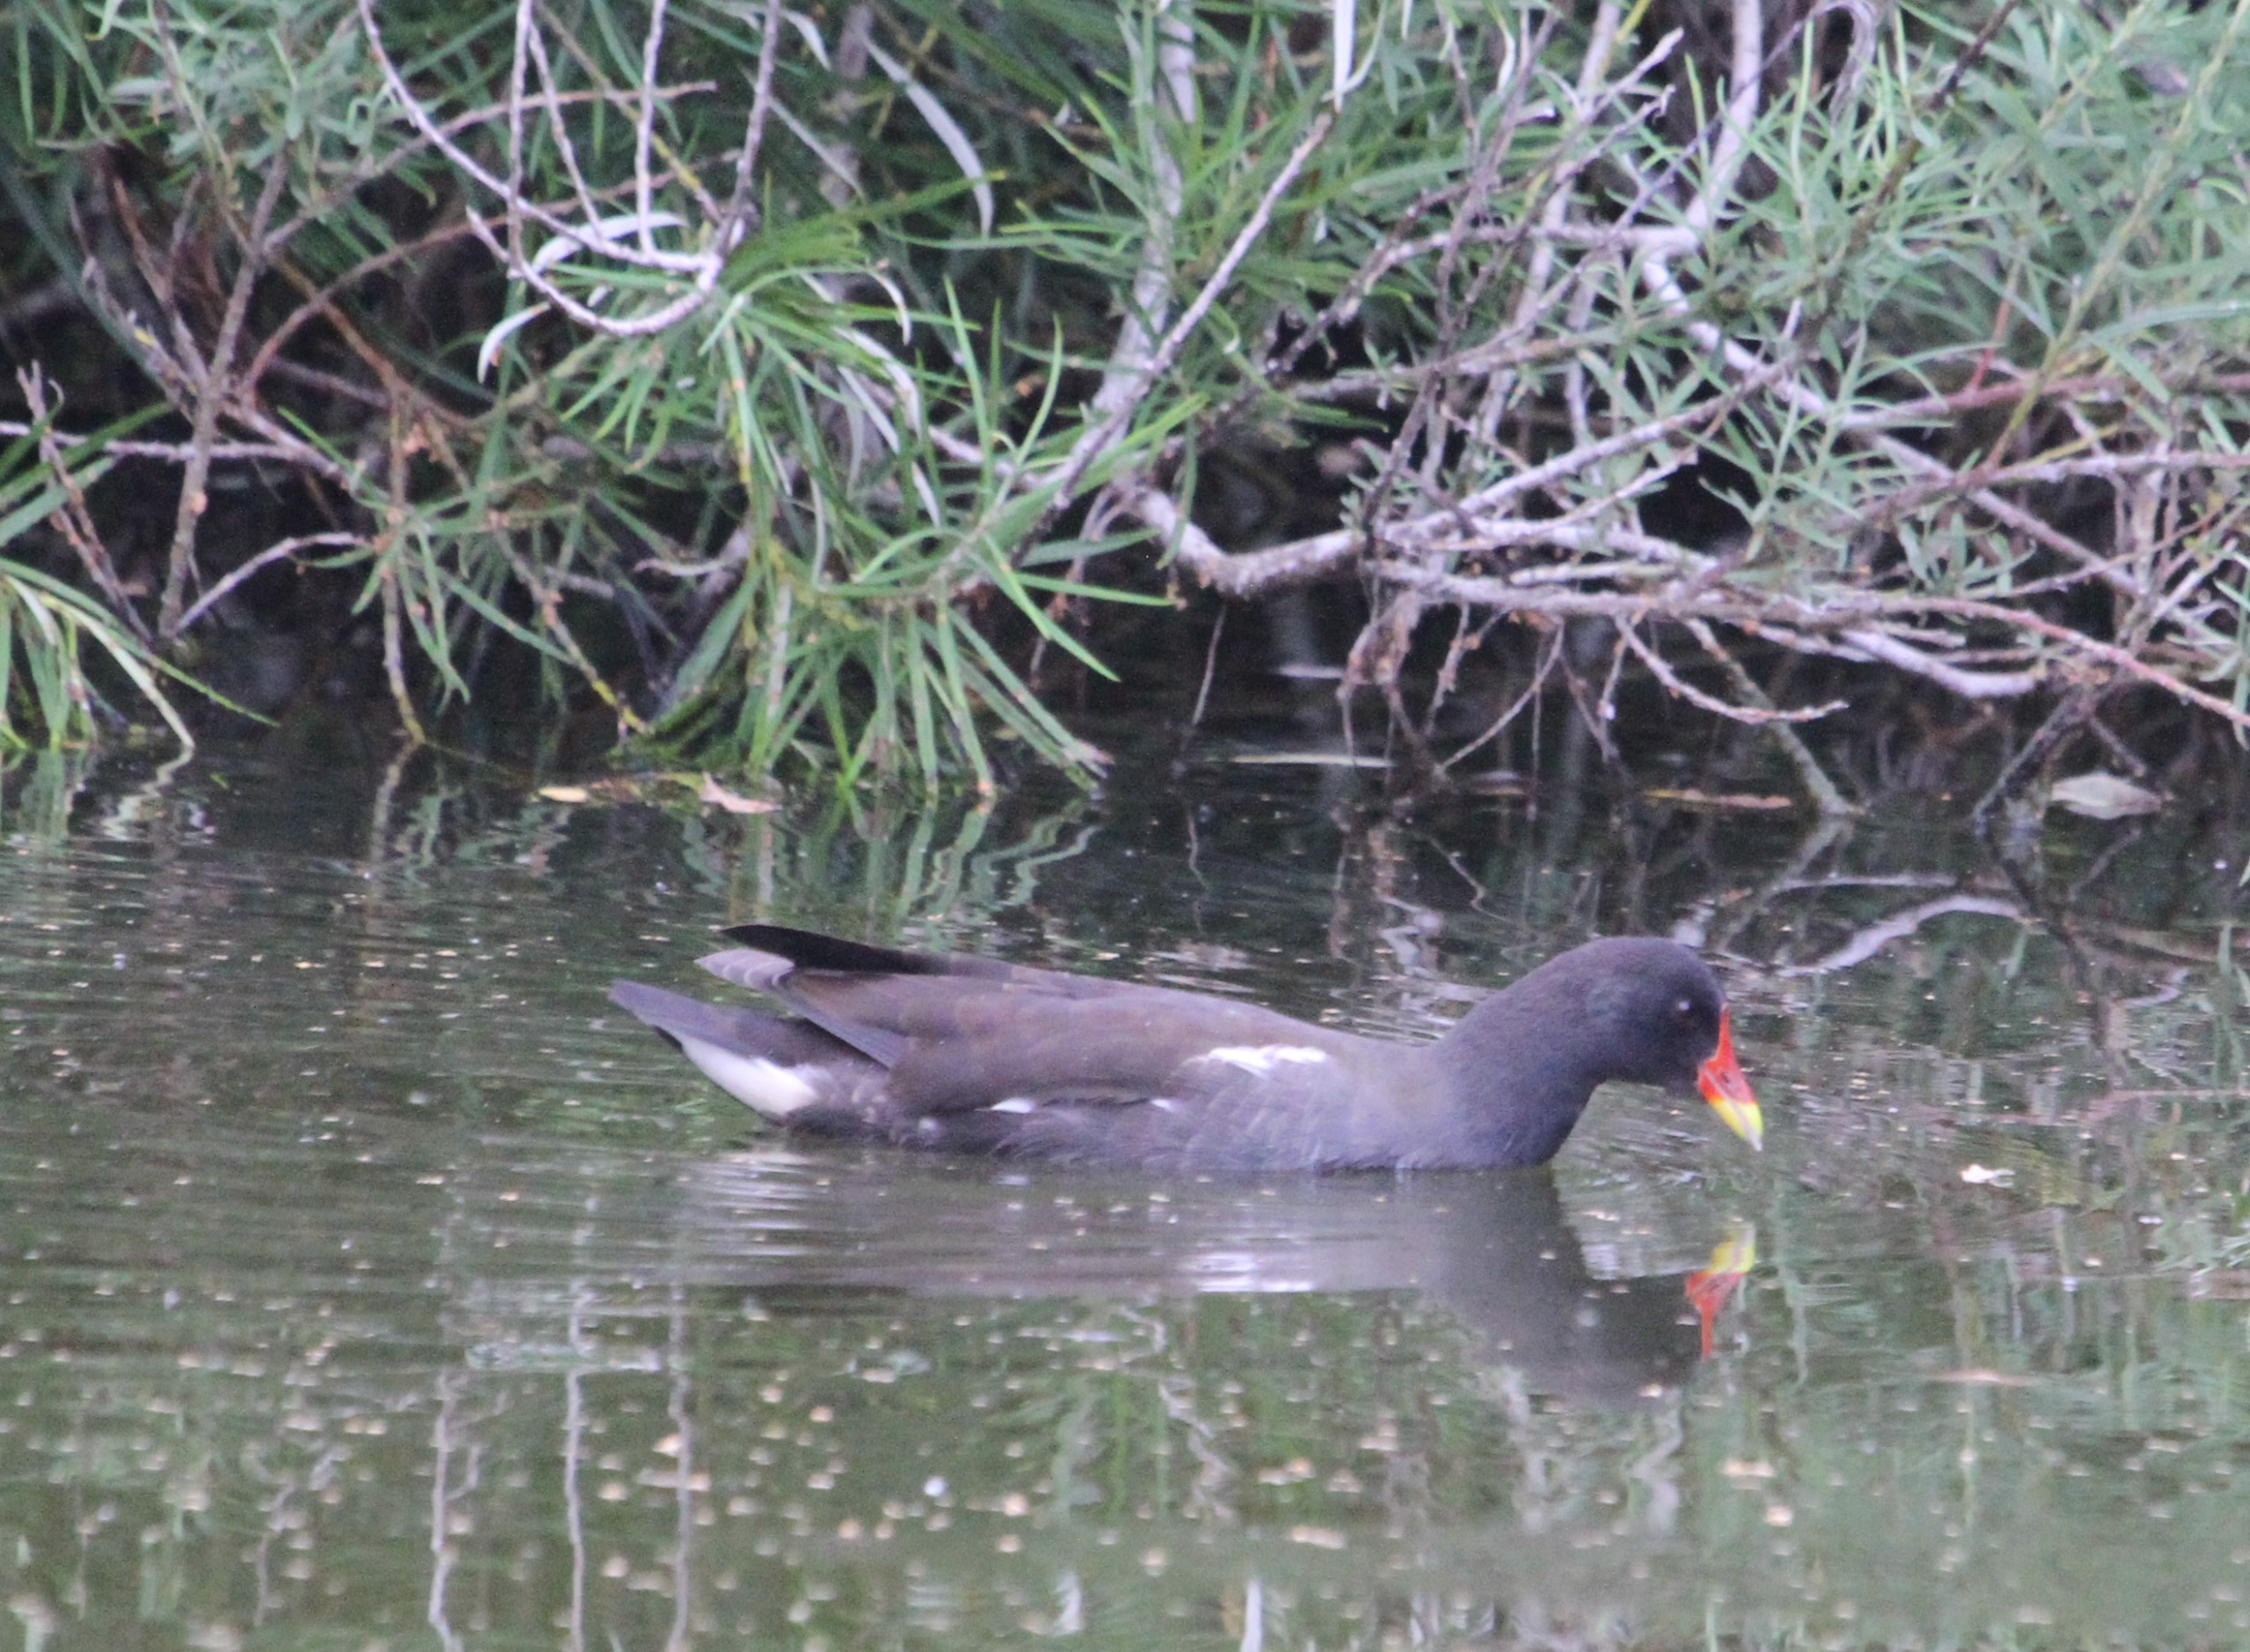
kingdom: Animalia
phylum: Chordata
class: Aves
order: Gruiformes
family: Rallidae
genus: Gallinula
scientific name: Gallinula chloropus
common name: Grønbenet rørhøne
